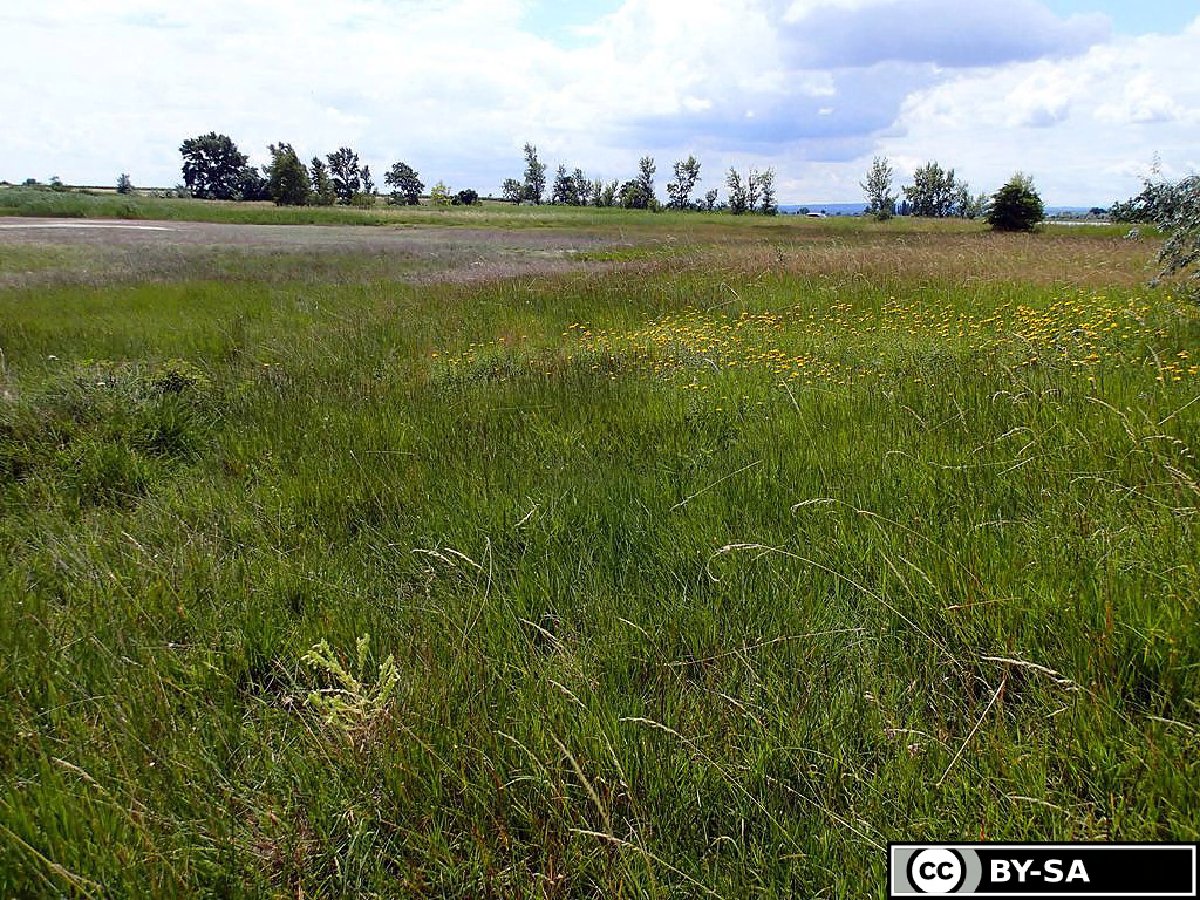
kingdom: Plantae
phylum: Tracheophyta
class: Magnoliopsida
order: Boraginales
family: Boraginaceae
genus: Onosma
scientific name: Onosma arenaria
